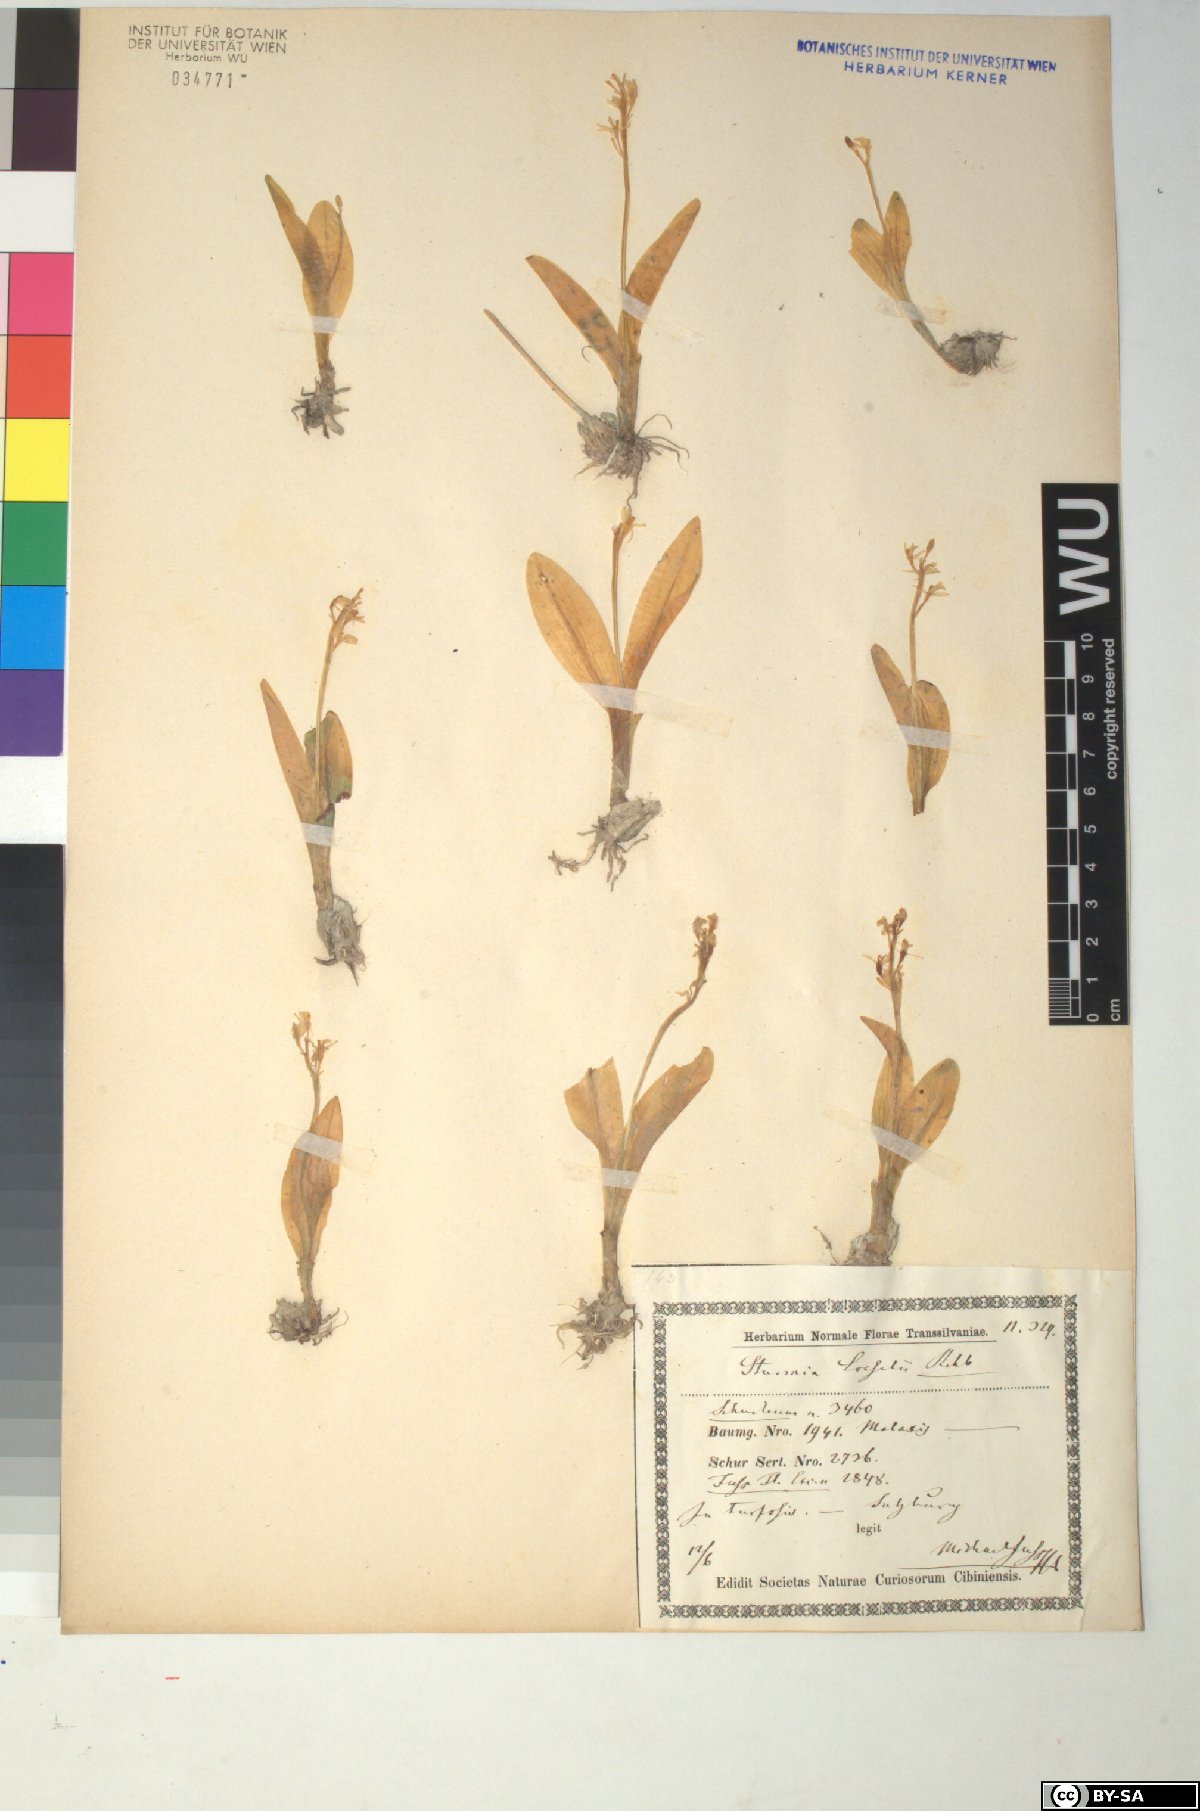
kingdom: Animalia
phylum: Arthropoda
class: Insecta
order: Coleoptera
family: Curculionidae
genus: Liparis
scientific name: Liparis loeselii
